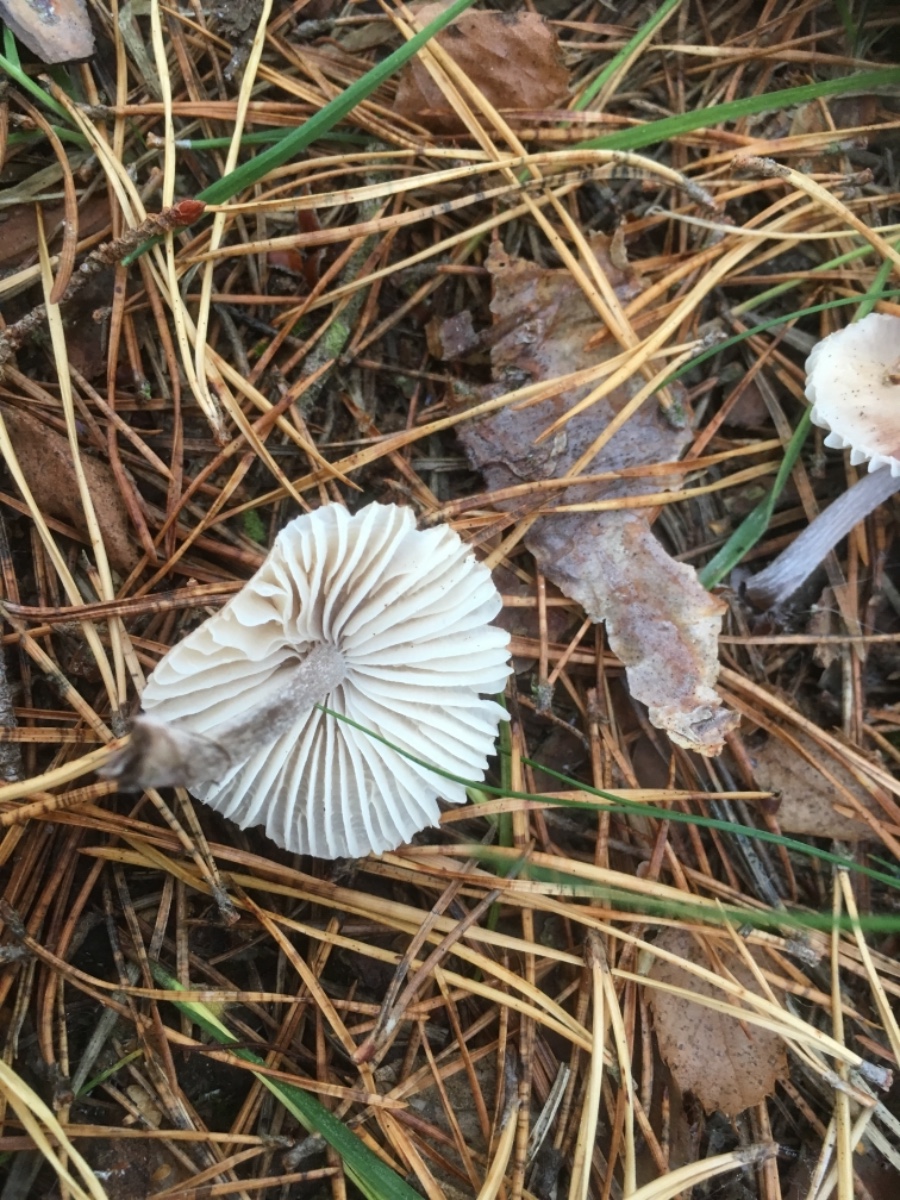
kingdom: Fungi
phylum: Basidiomycota
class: Agaricomycetes
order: Agaricales
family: Mycenaceae
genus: Mycena
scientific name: Mycena zephirus
